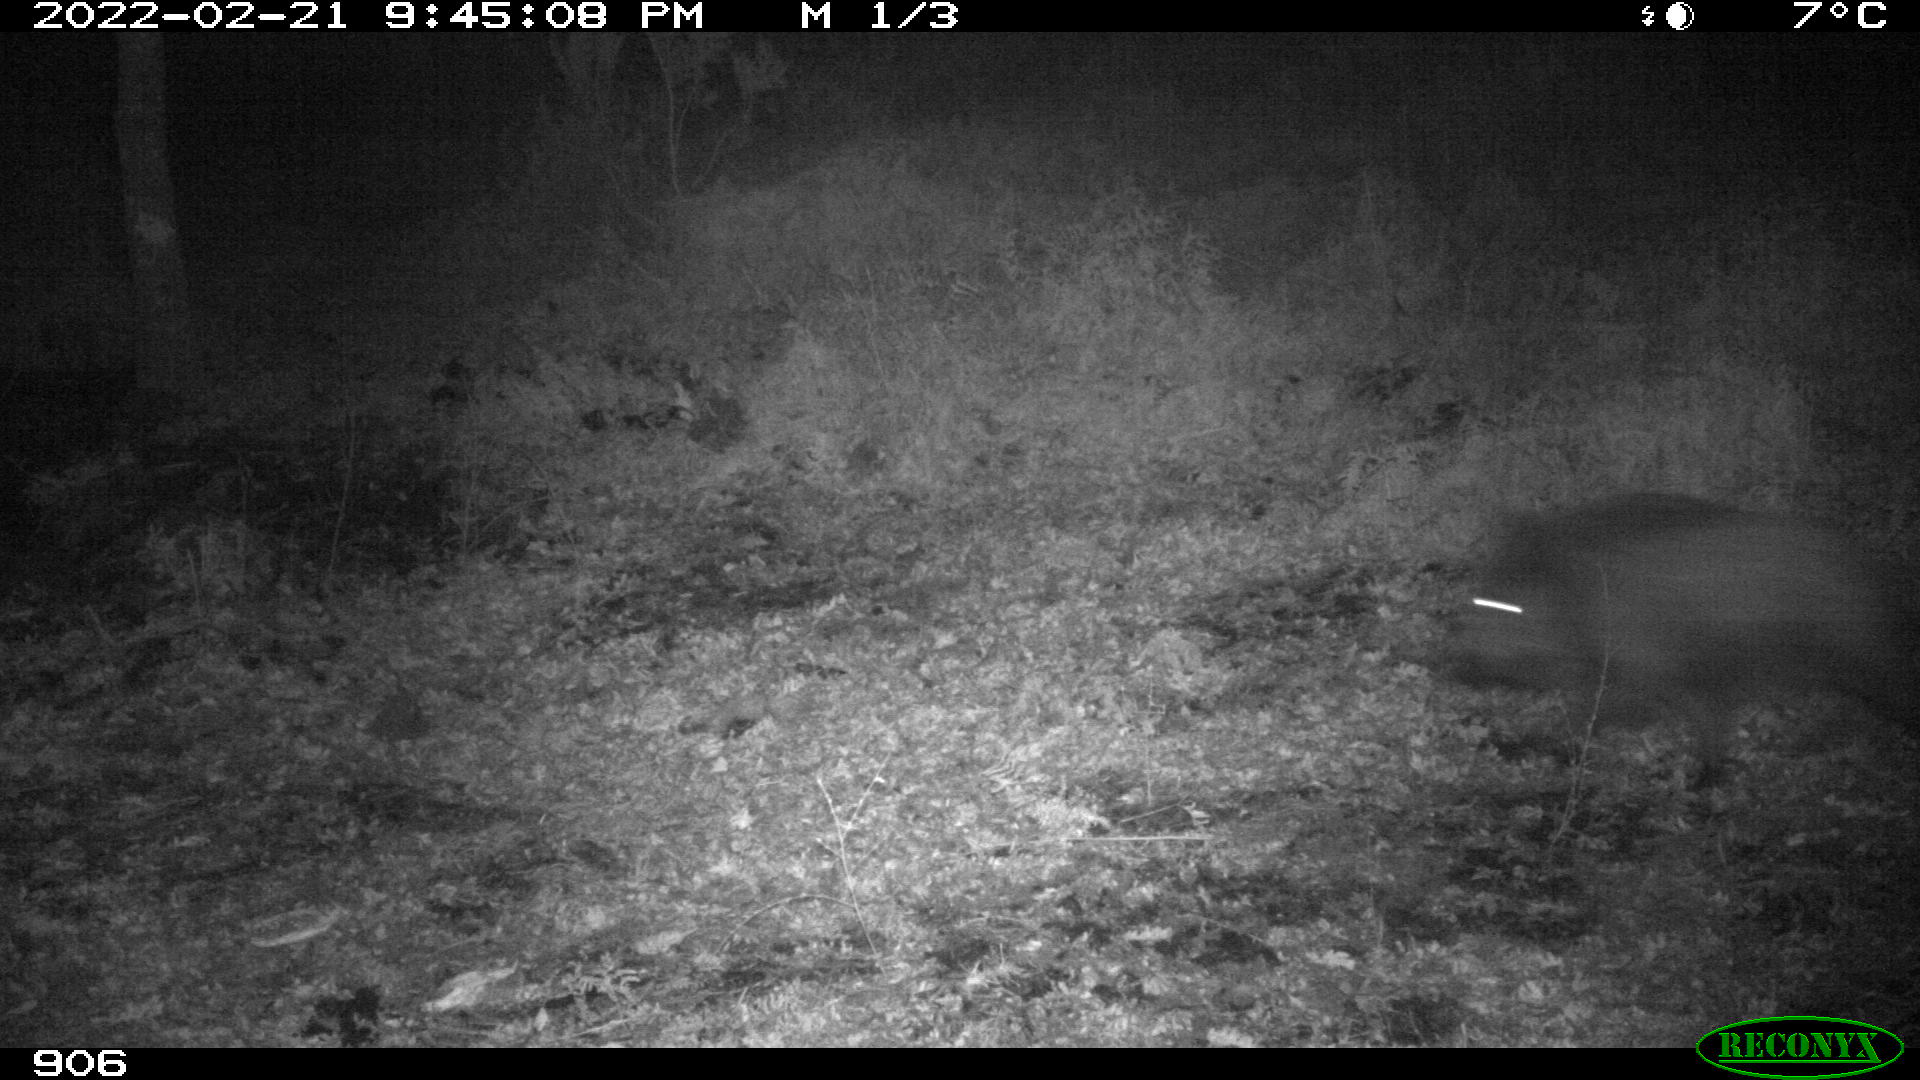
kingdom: Animalia
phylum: Chordata
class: Mammalia
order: Artiodactyla
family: Suidae
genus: Sus
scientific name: Sus scrofa
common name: Wild boar
